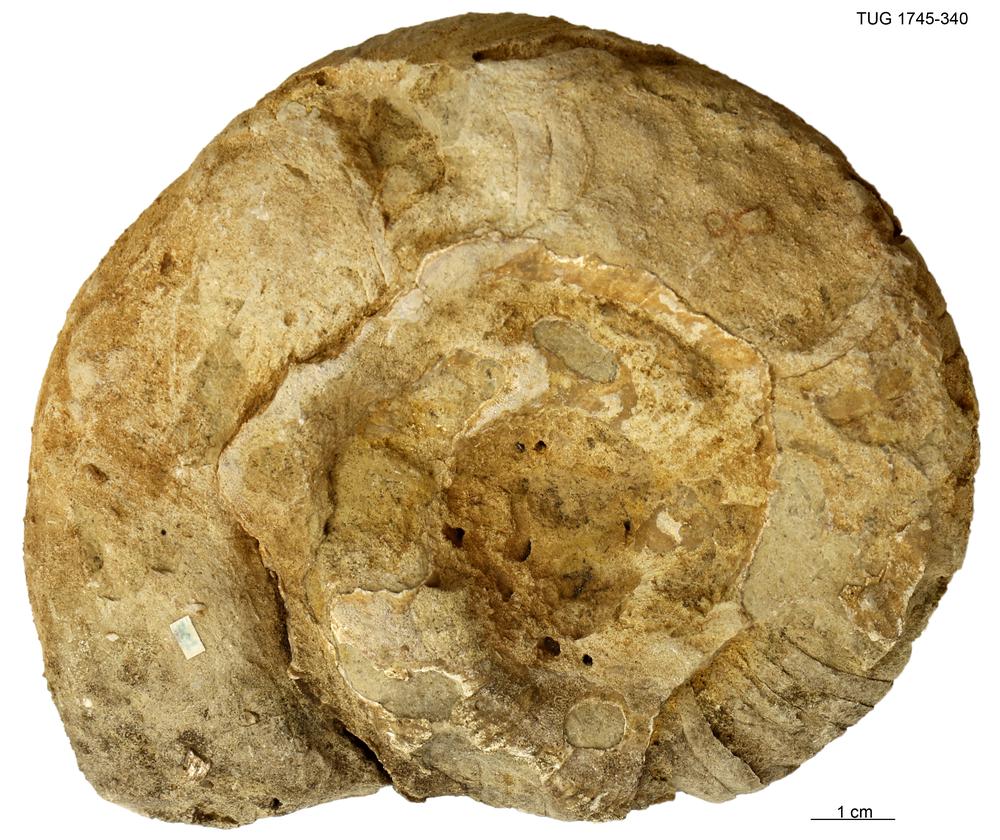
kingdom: Animalia
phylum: Mollusca
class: Cephalopoda
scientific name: Cephalopoda
